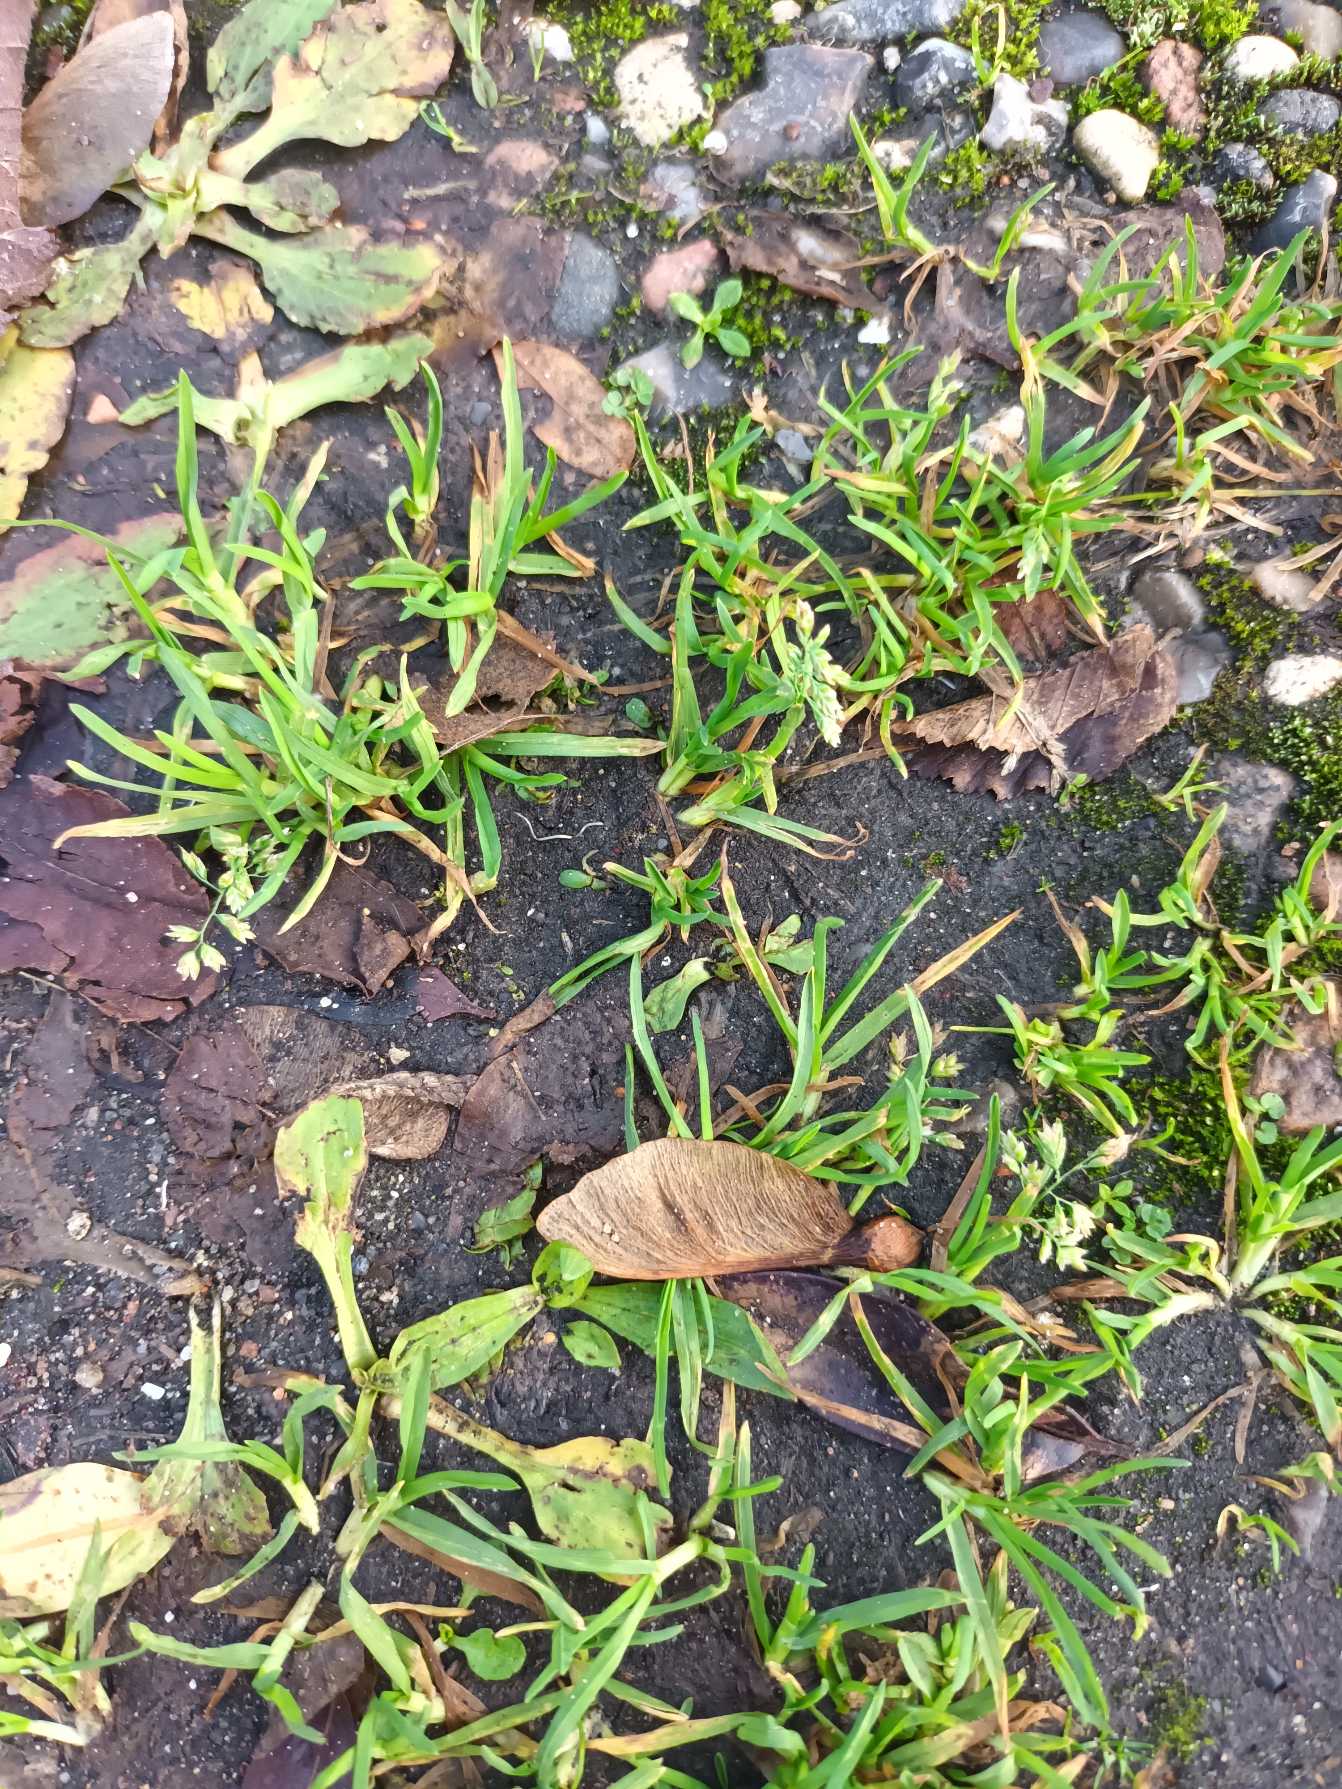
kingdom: Plantae
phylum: Tracheophyta
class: Liliopsida
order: Poales
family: Poaceae
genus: Poa
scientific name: Poa annua
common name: Enårig rapgræs
